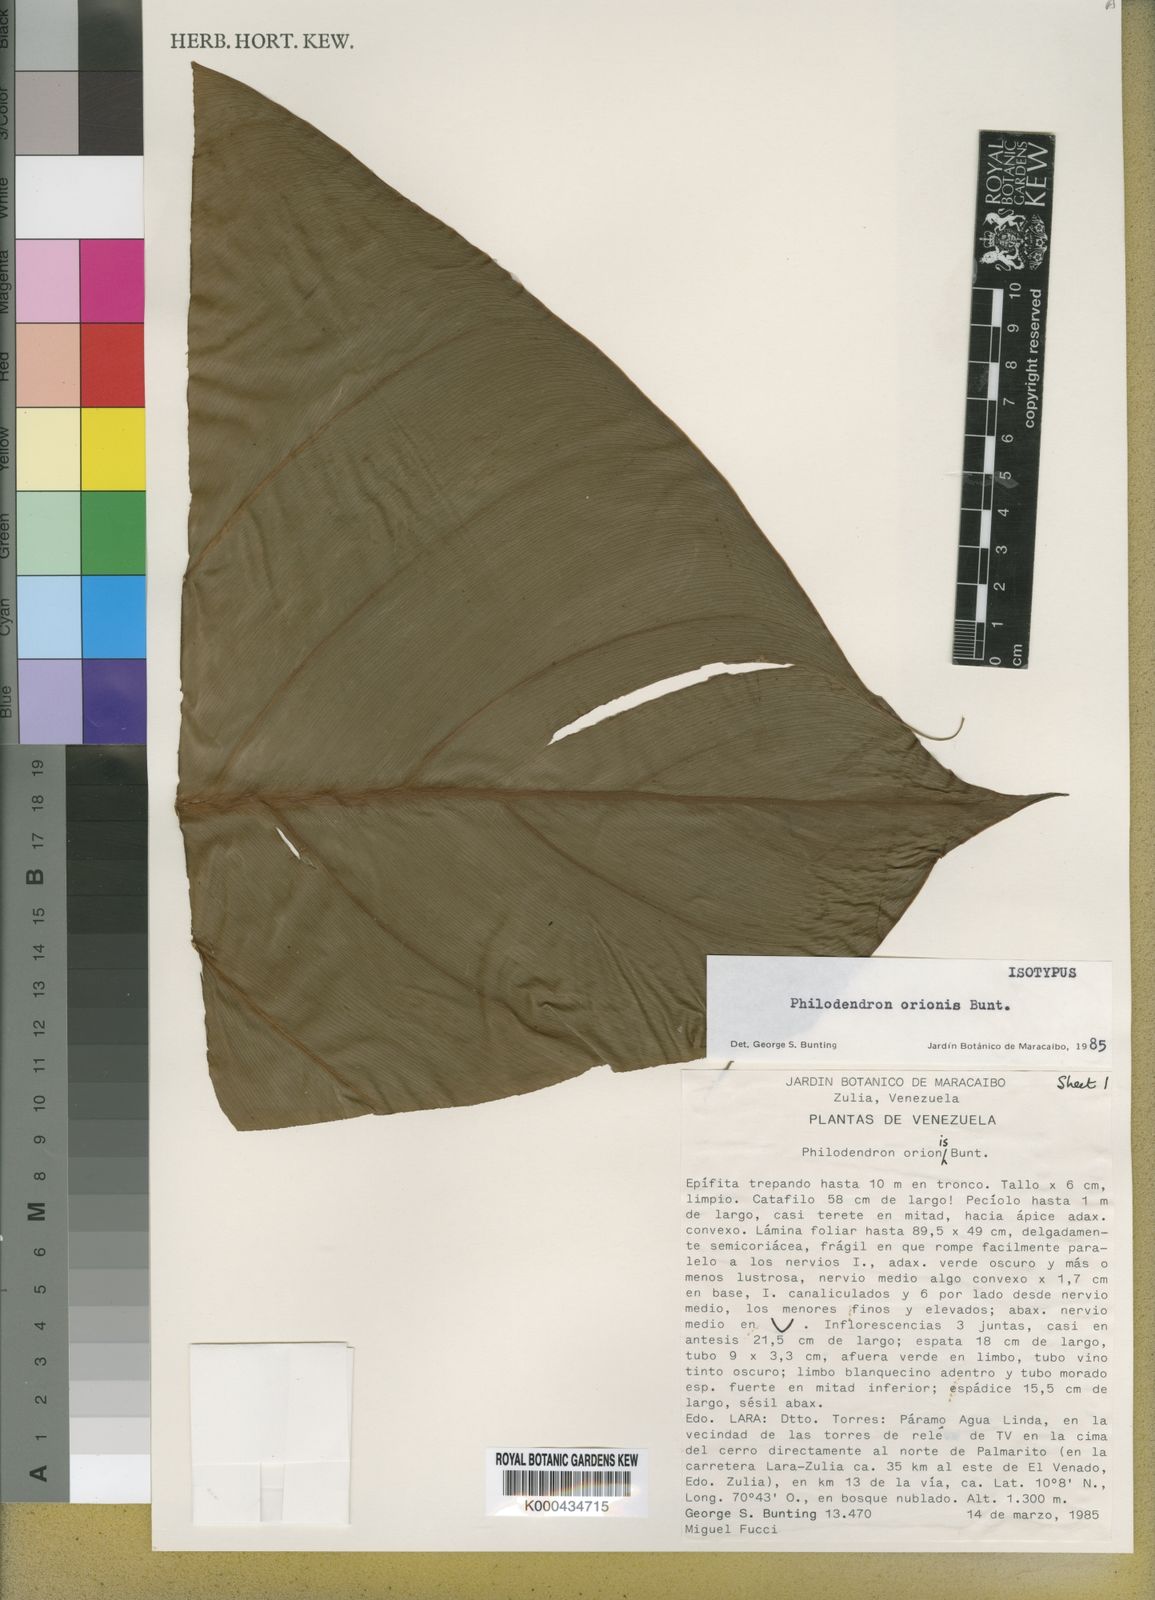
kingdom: Plantae
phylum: Tracheophyta
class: Liliopsida
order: Alismatales
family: Araceae
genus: Philodendron
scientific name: Philodendron orionis
